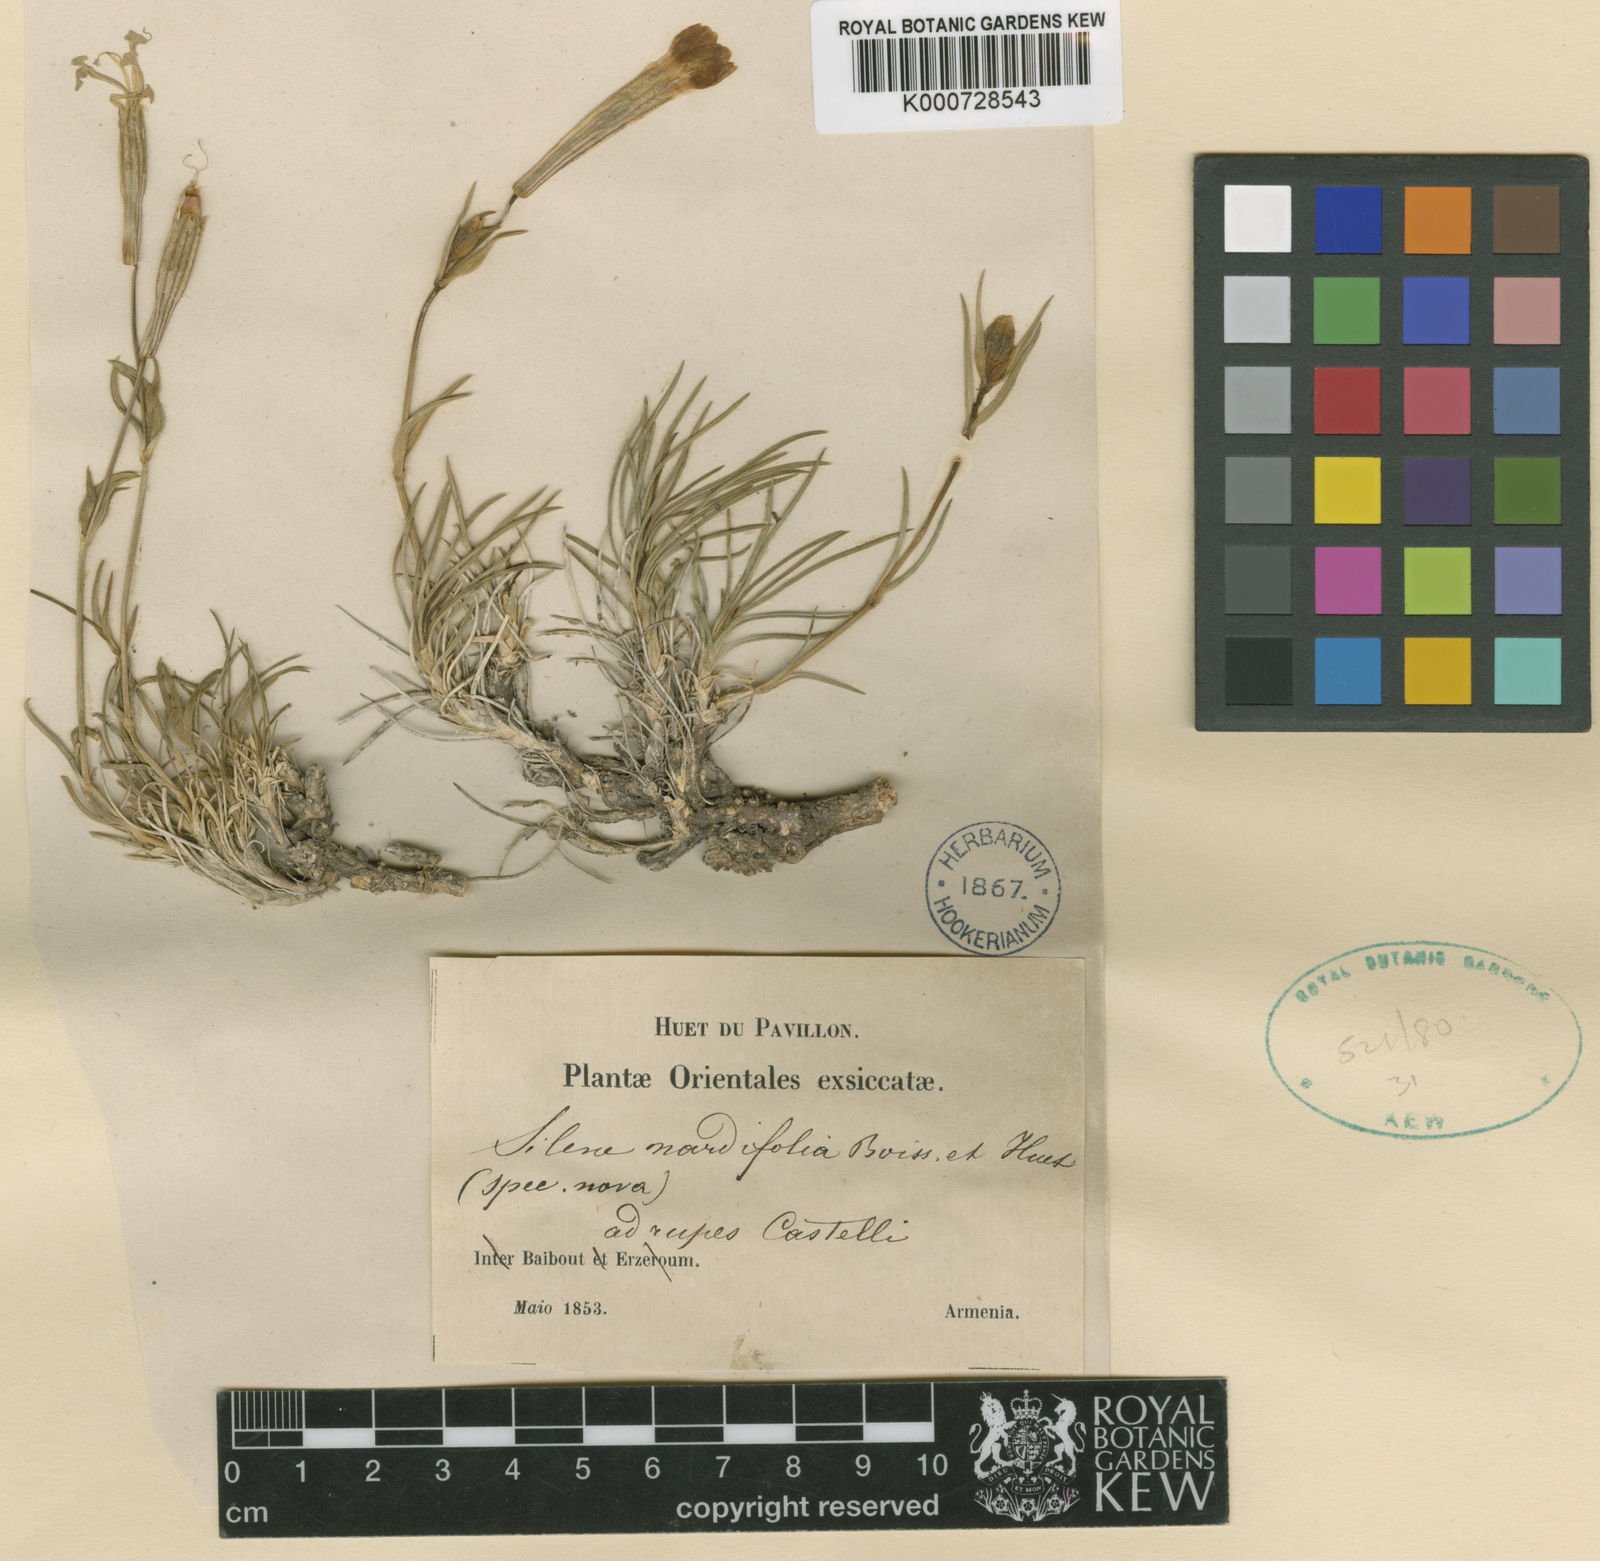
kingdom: Plantae
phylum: Tracheophyta
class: Magnoliopsida
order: Caryophyllales
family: Caryophyllaceae
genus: Silene
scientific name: Silene caryophylloides
